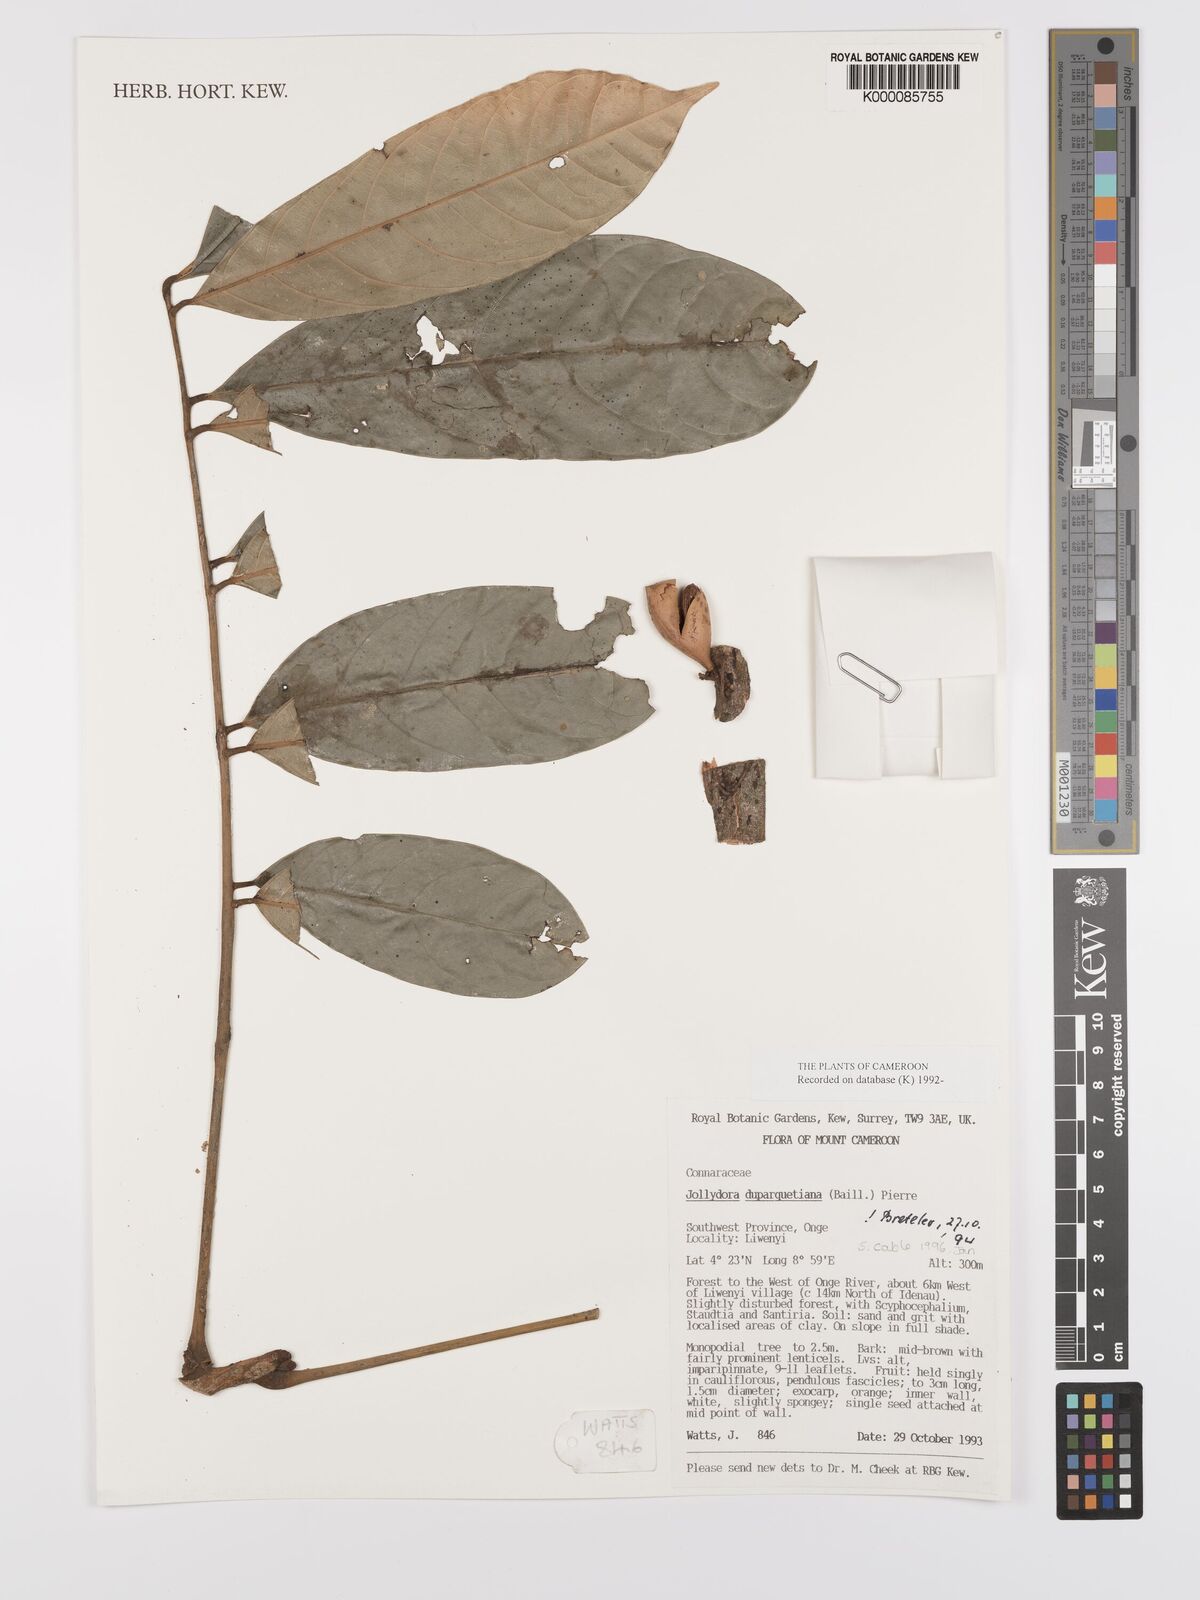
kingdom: Plantae
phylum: Tracheophyta
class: Magnoliopsida
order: Oxalidales
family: Connaraceae
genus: Jollydora
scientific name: Jollydora duparquetiana
